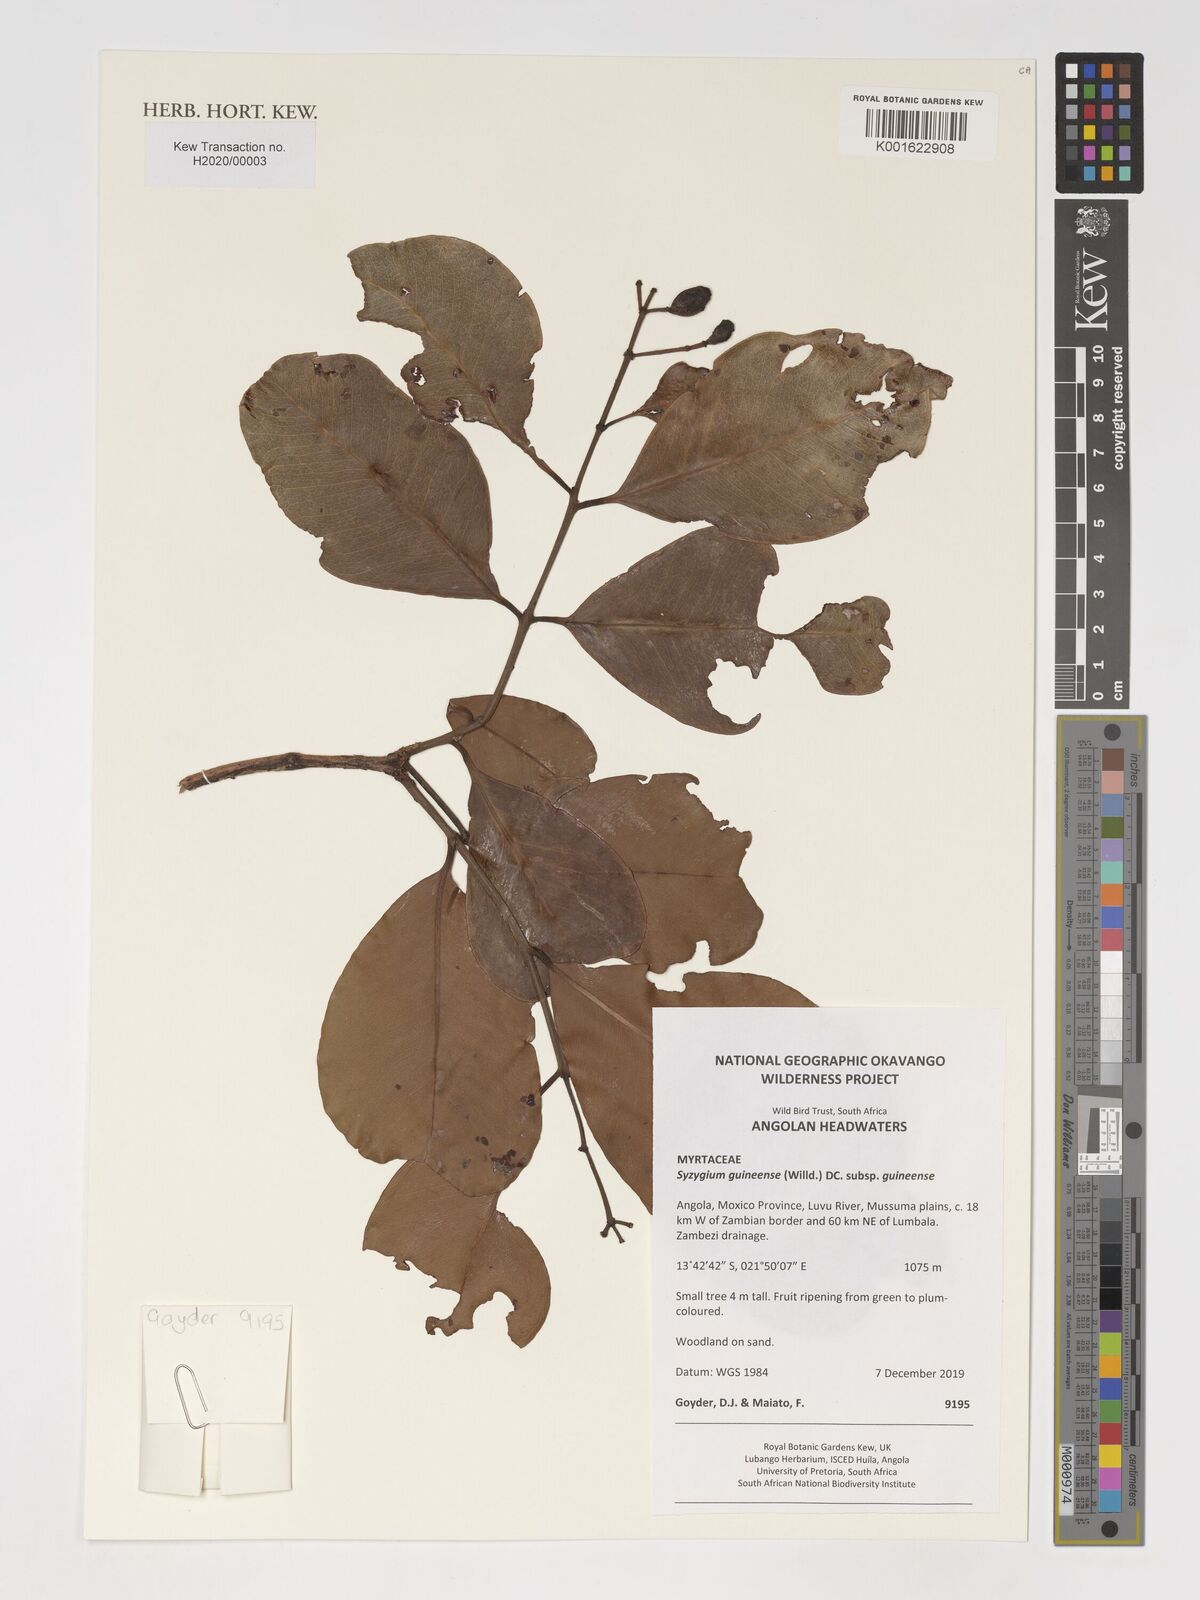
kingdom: Plantae
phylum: Tracheophyta
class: Magnoliopsida
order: Myrtales
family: Myrtaceae
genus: Syzygium
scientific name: Syzygium guineense
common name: Water-pear
